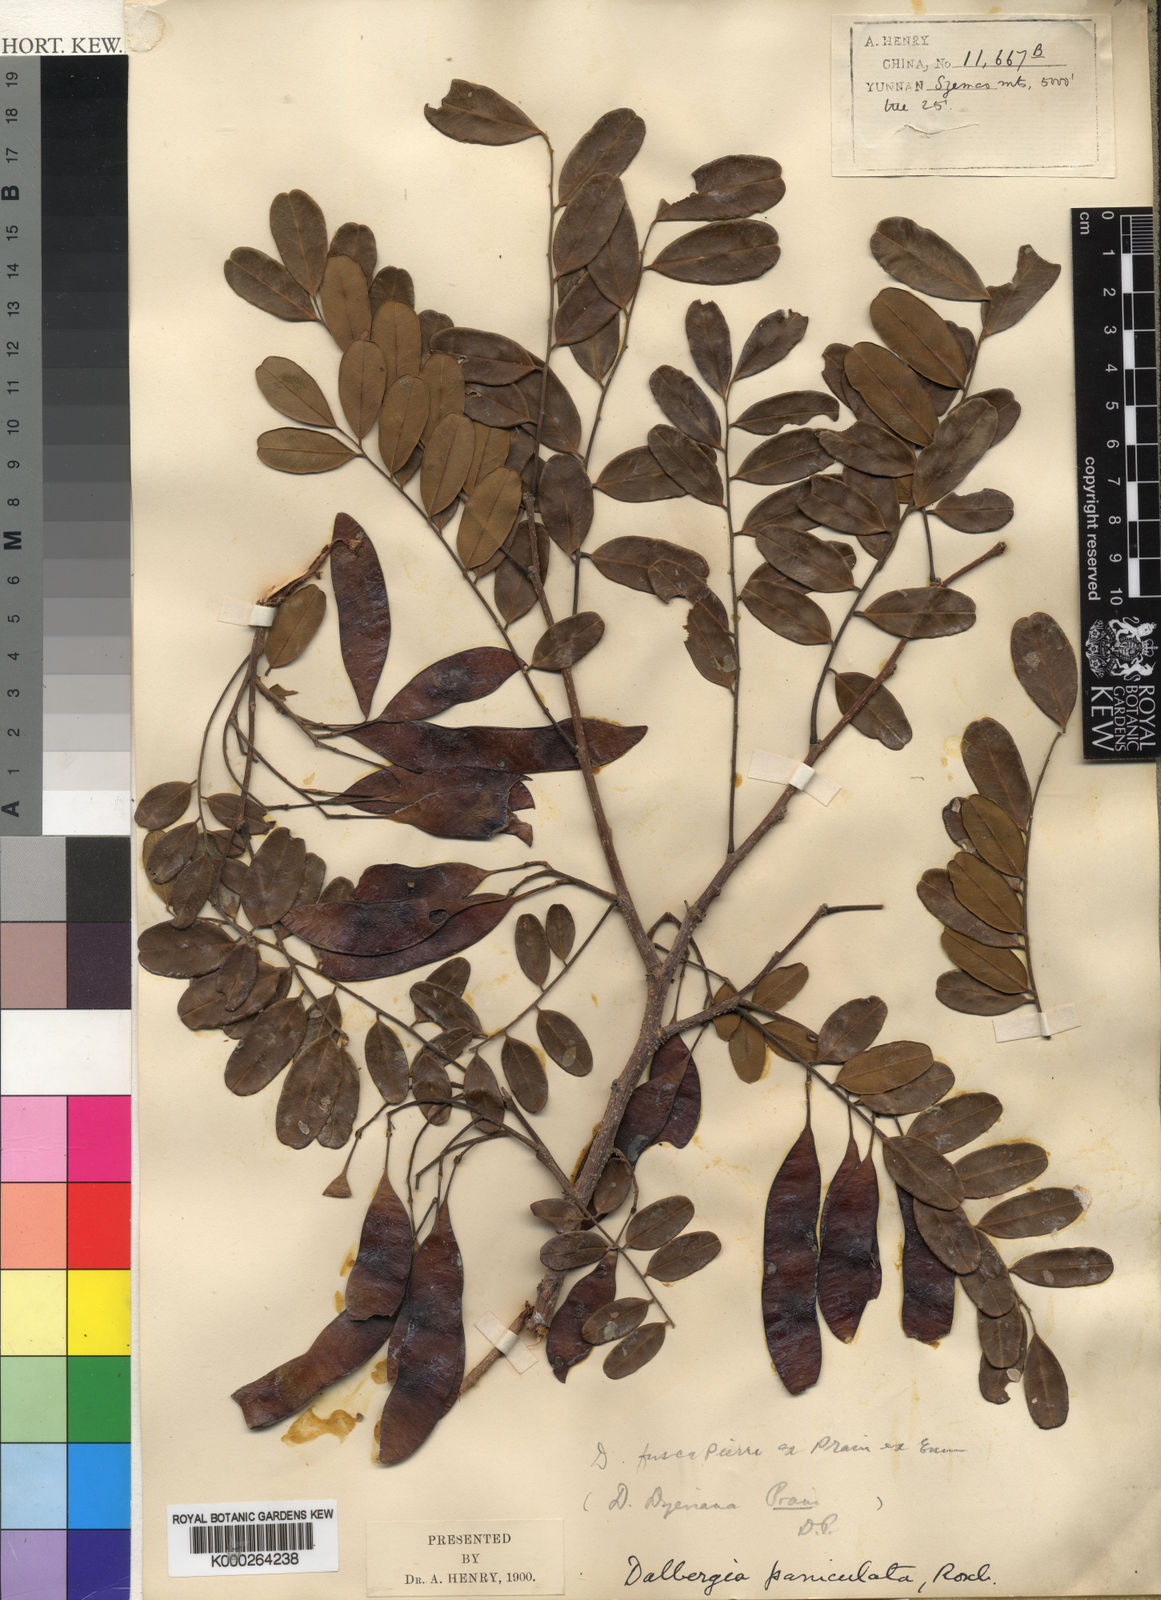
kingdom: Plantae
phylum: Tracheophyta
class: Magnoliopsida
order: Fabales
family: Fabaceae
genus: Dalbergia
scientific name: Dalbergia lanceolaria
